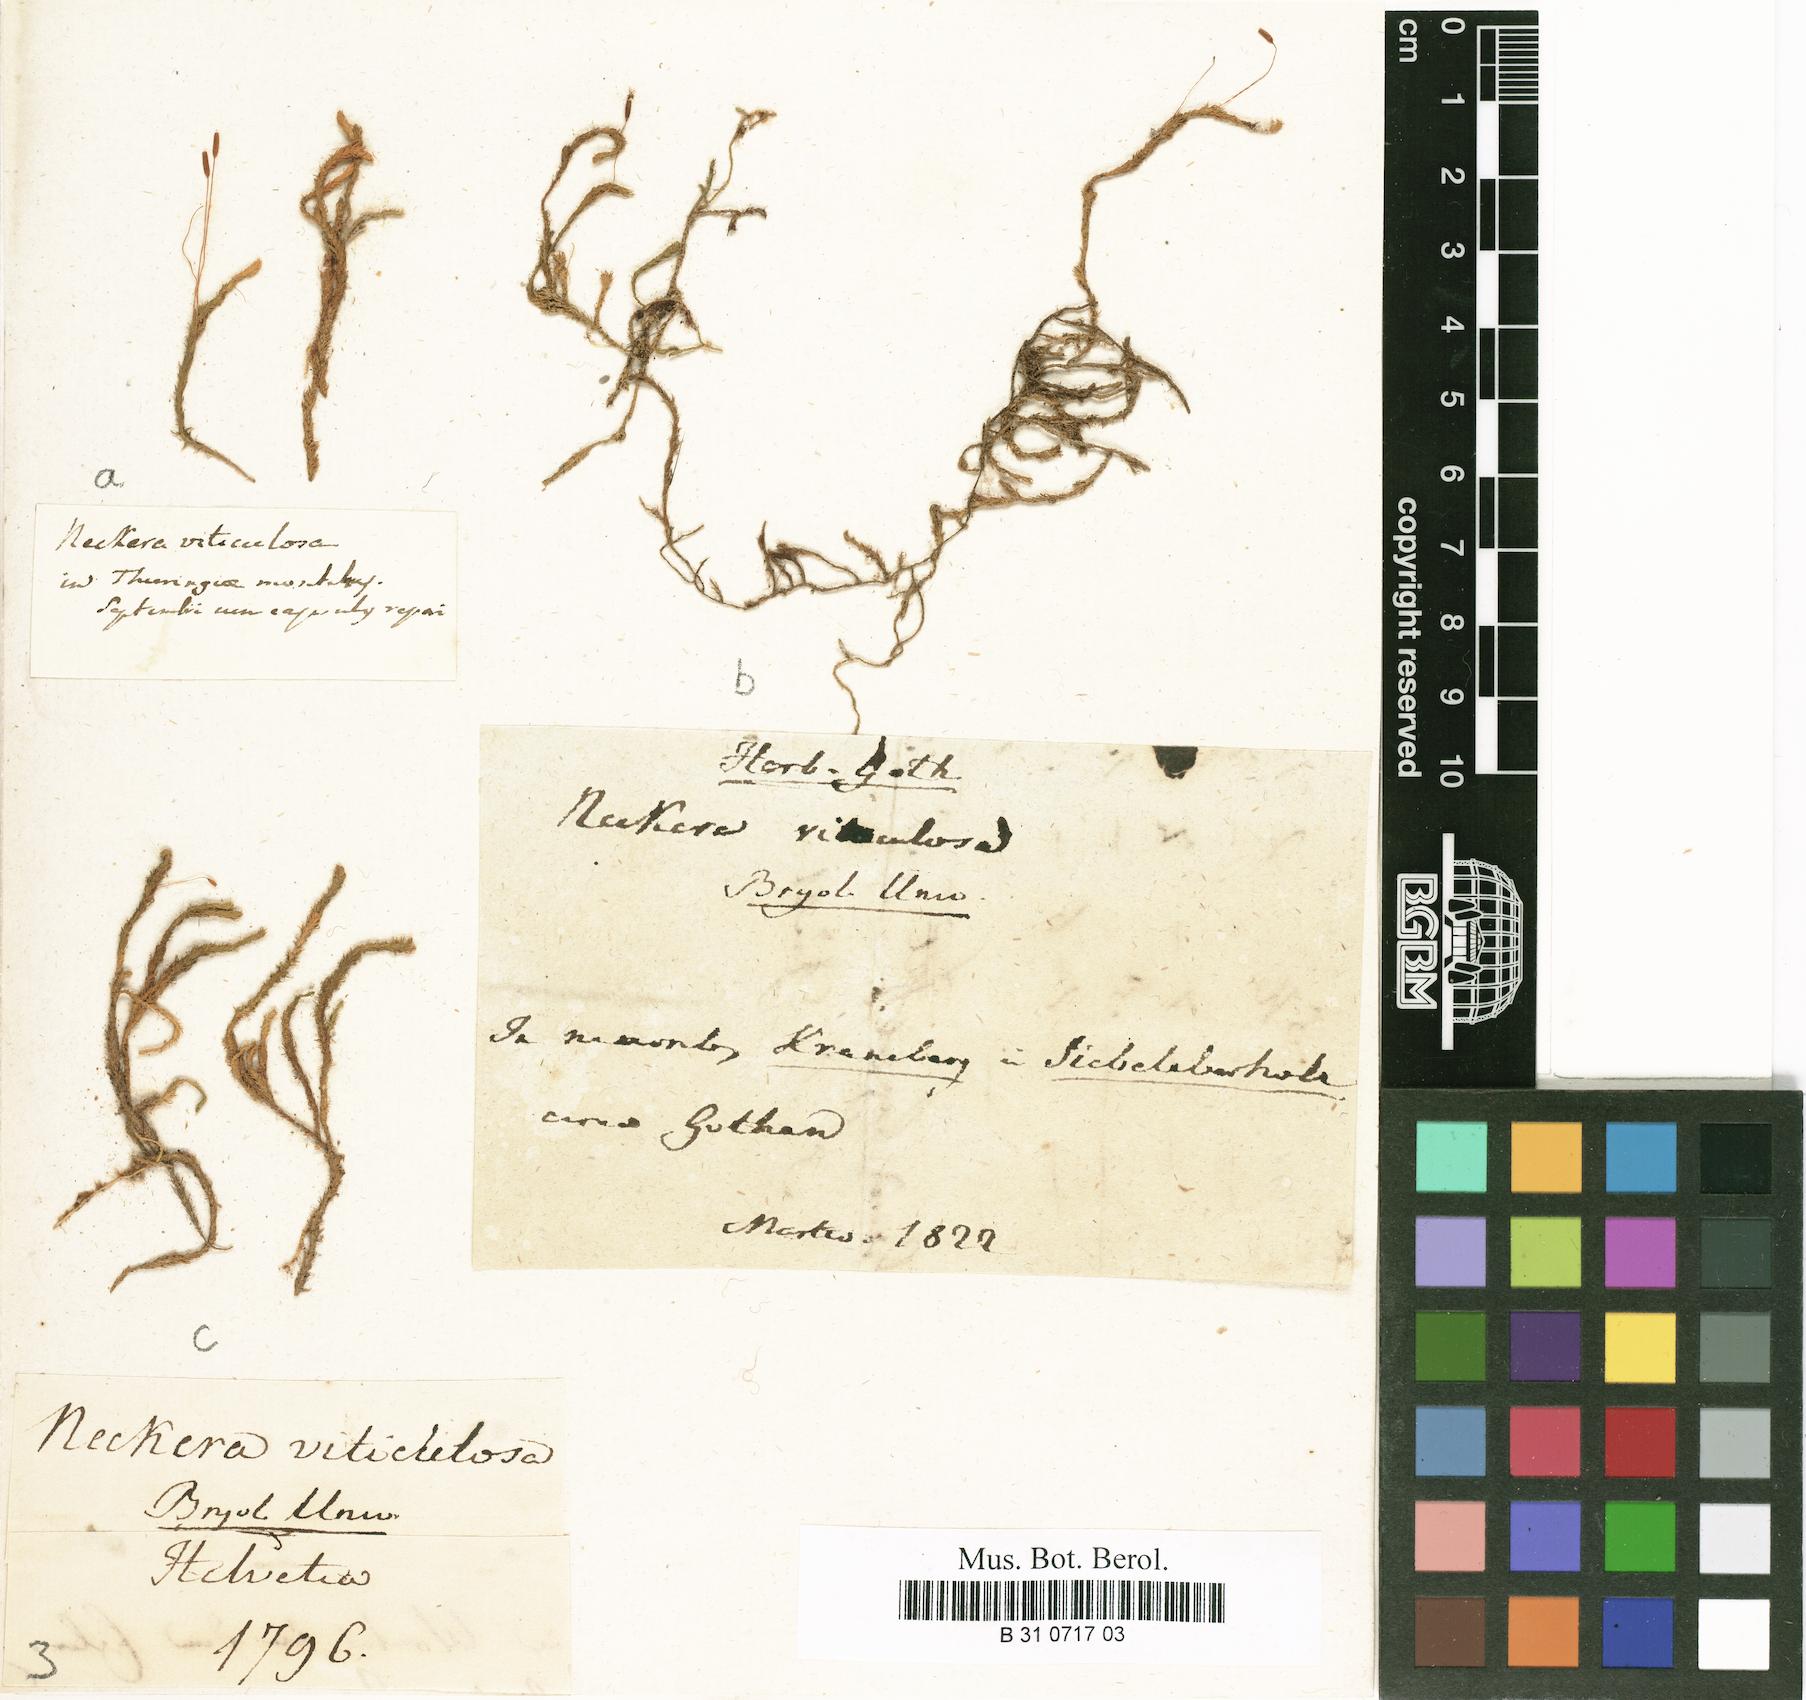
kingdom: Plantae
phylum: Bryophyta
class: Bryopsida
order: Hypnales
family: Anomodontaceae
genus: Anomodon
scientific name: Anomodon viticulosus
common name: Tall anomodon
